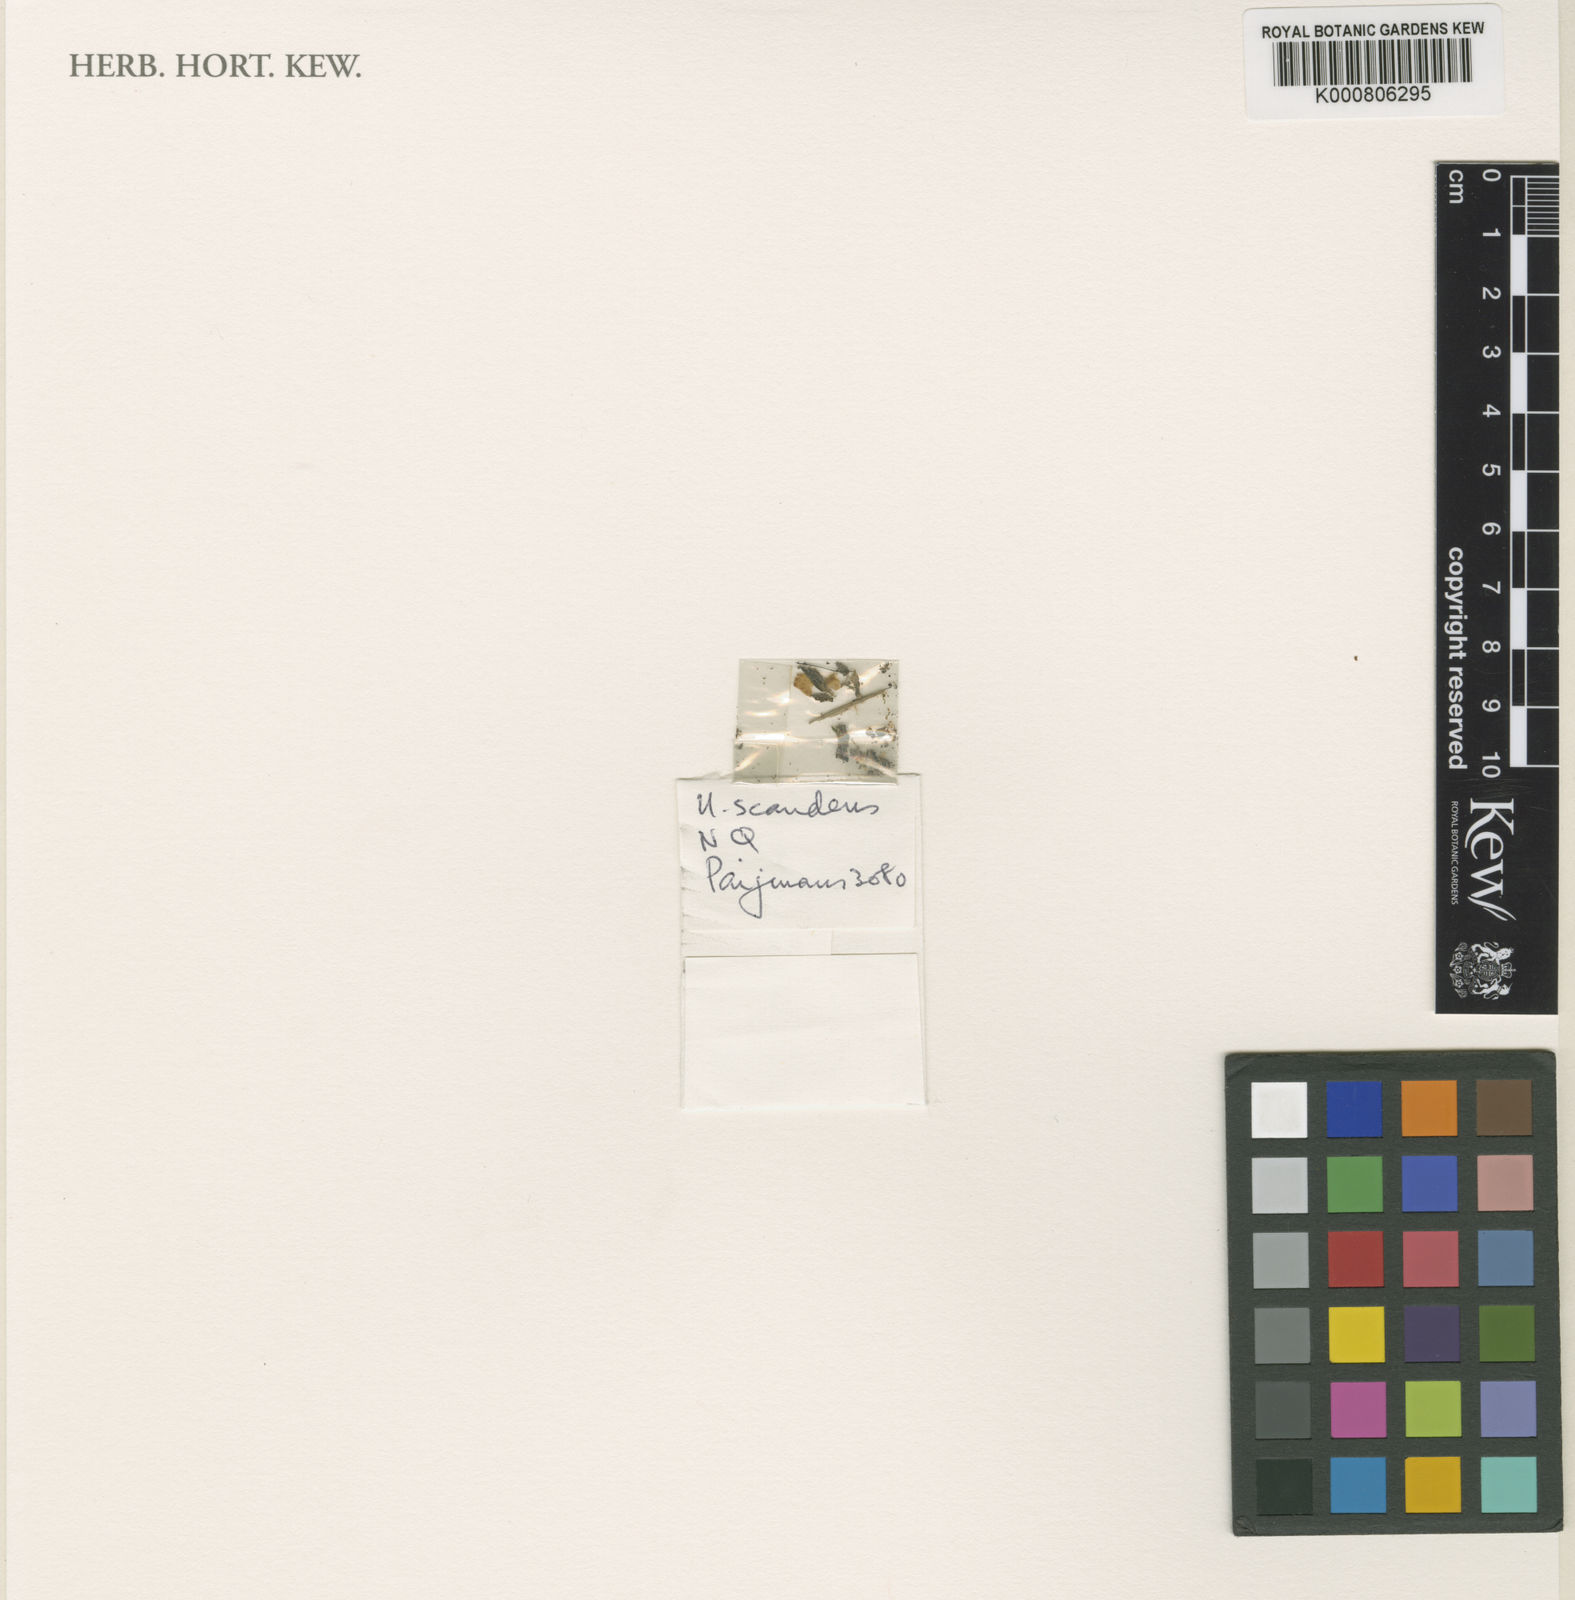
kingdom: Plantae
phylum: Tracheophyta
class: Magnoliopsida
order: Lamiales
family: Lentibulariaceae
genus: Utricularia
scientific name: Utricularia circumvoluta
